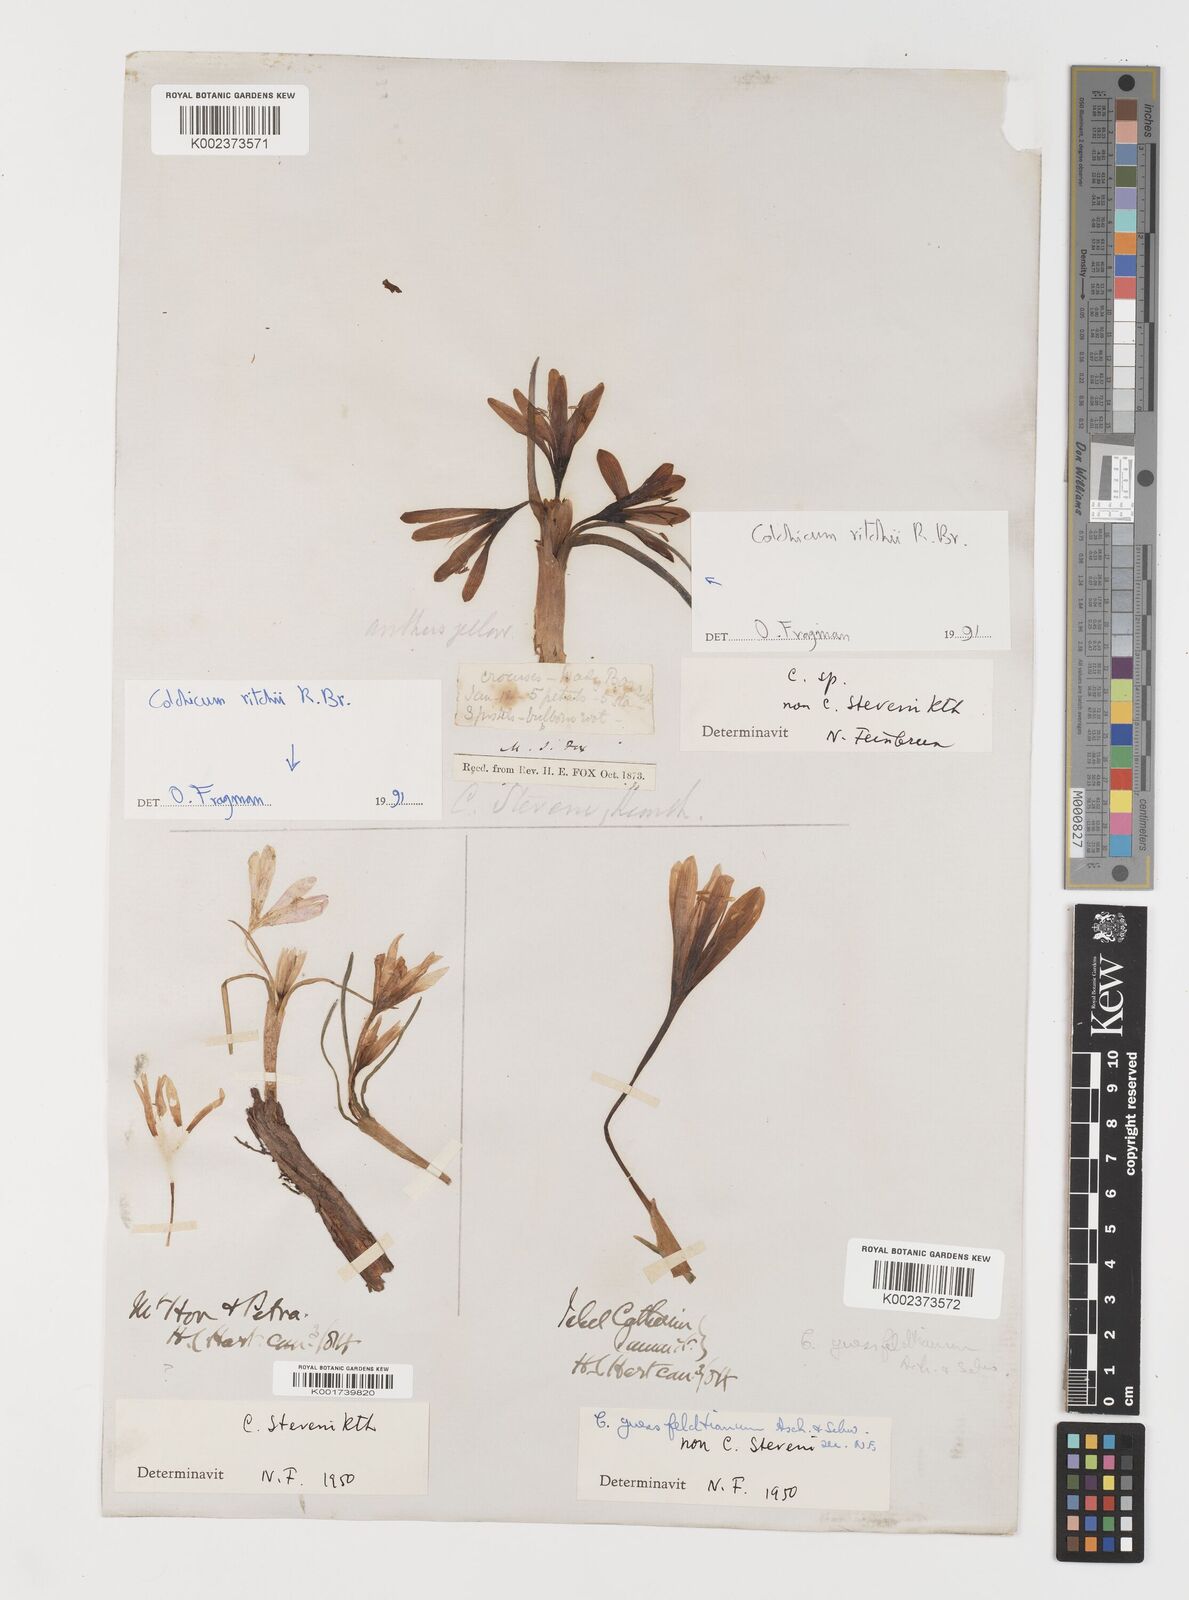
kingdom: Plantae
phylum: Tracheophyta
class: Liliopsida
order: Liliales
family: Colchicaceae
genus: Colchicum
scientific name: Colchicum ritchii
